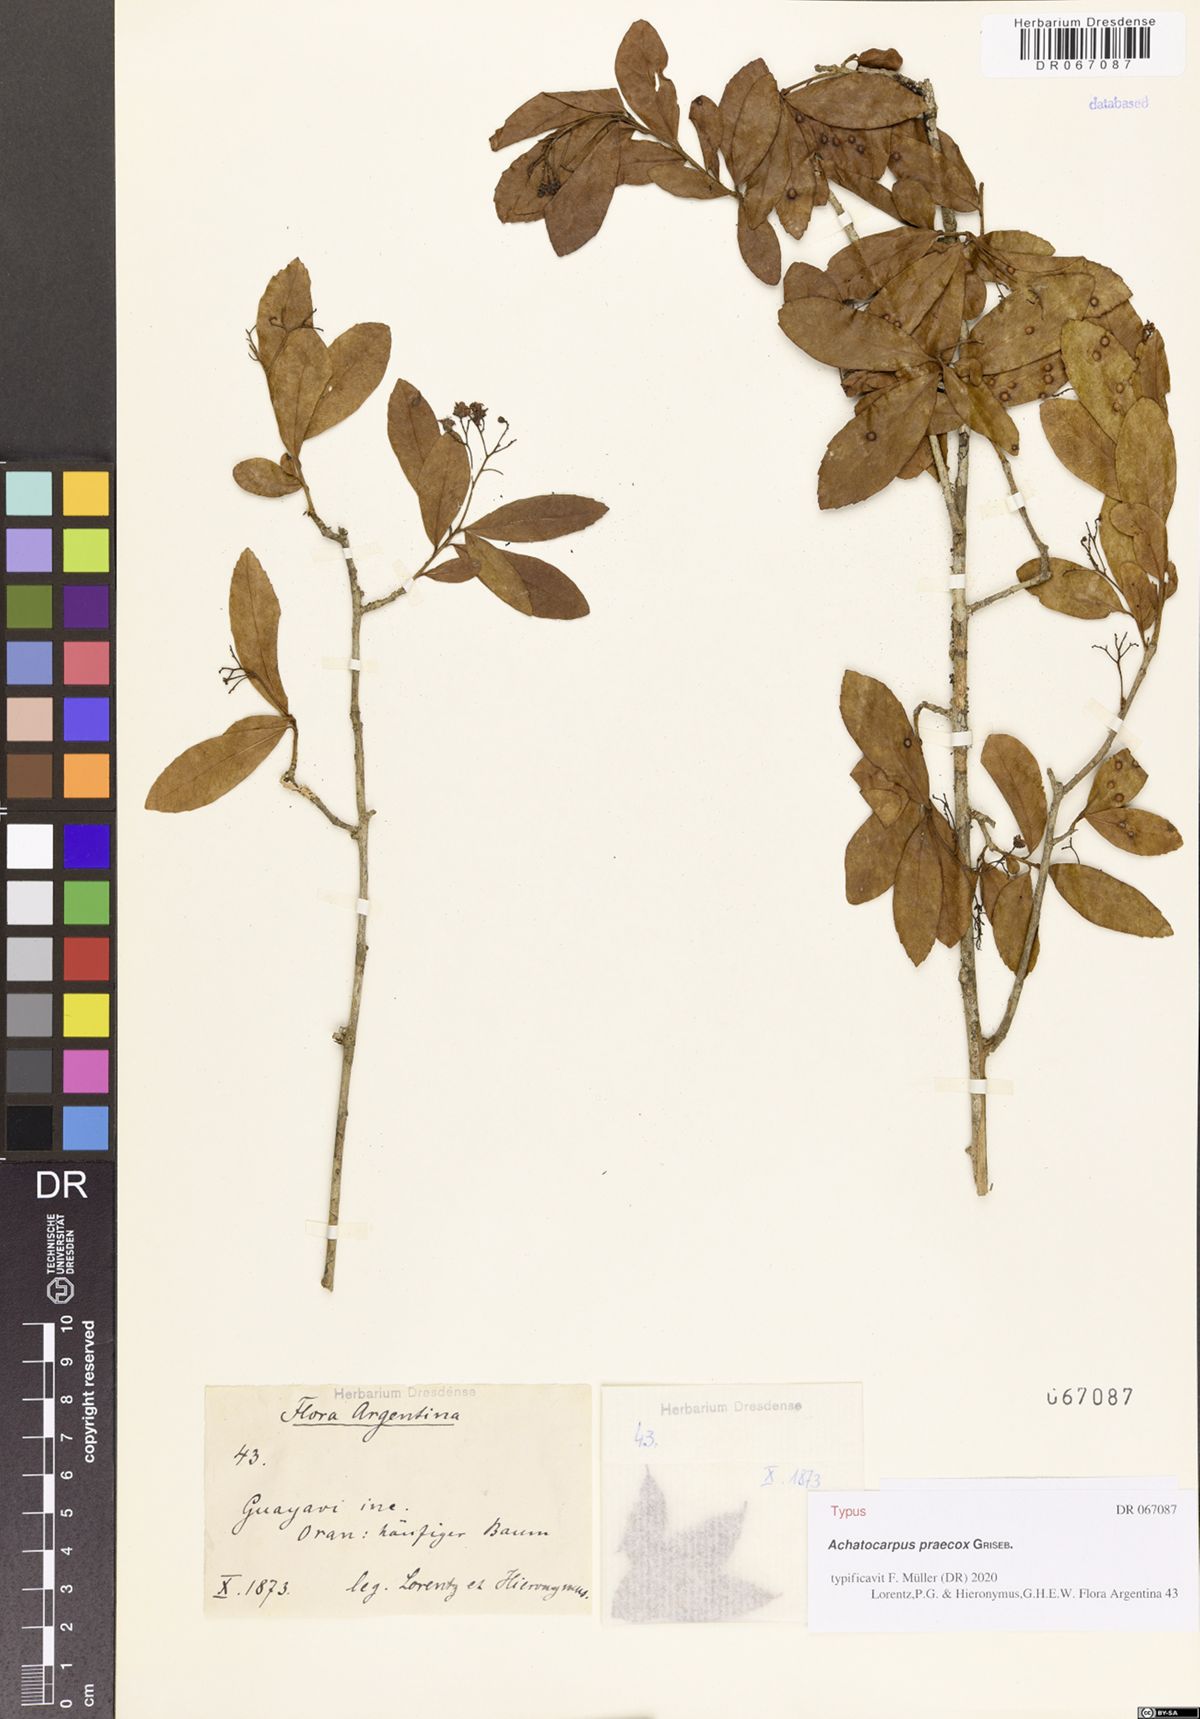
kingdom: Plantae
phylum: Tracheophyta
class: Magnoliopsida
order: Caryophyllales
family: Achatocarpaceae
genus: Achatocarpus
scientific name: Achatocarpus praecox
